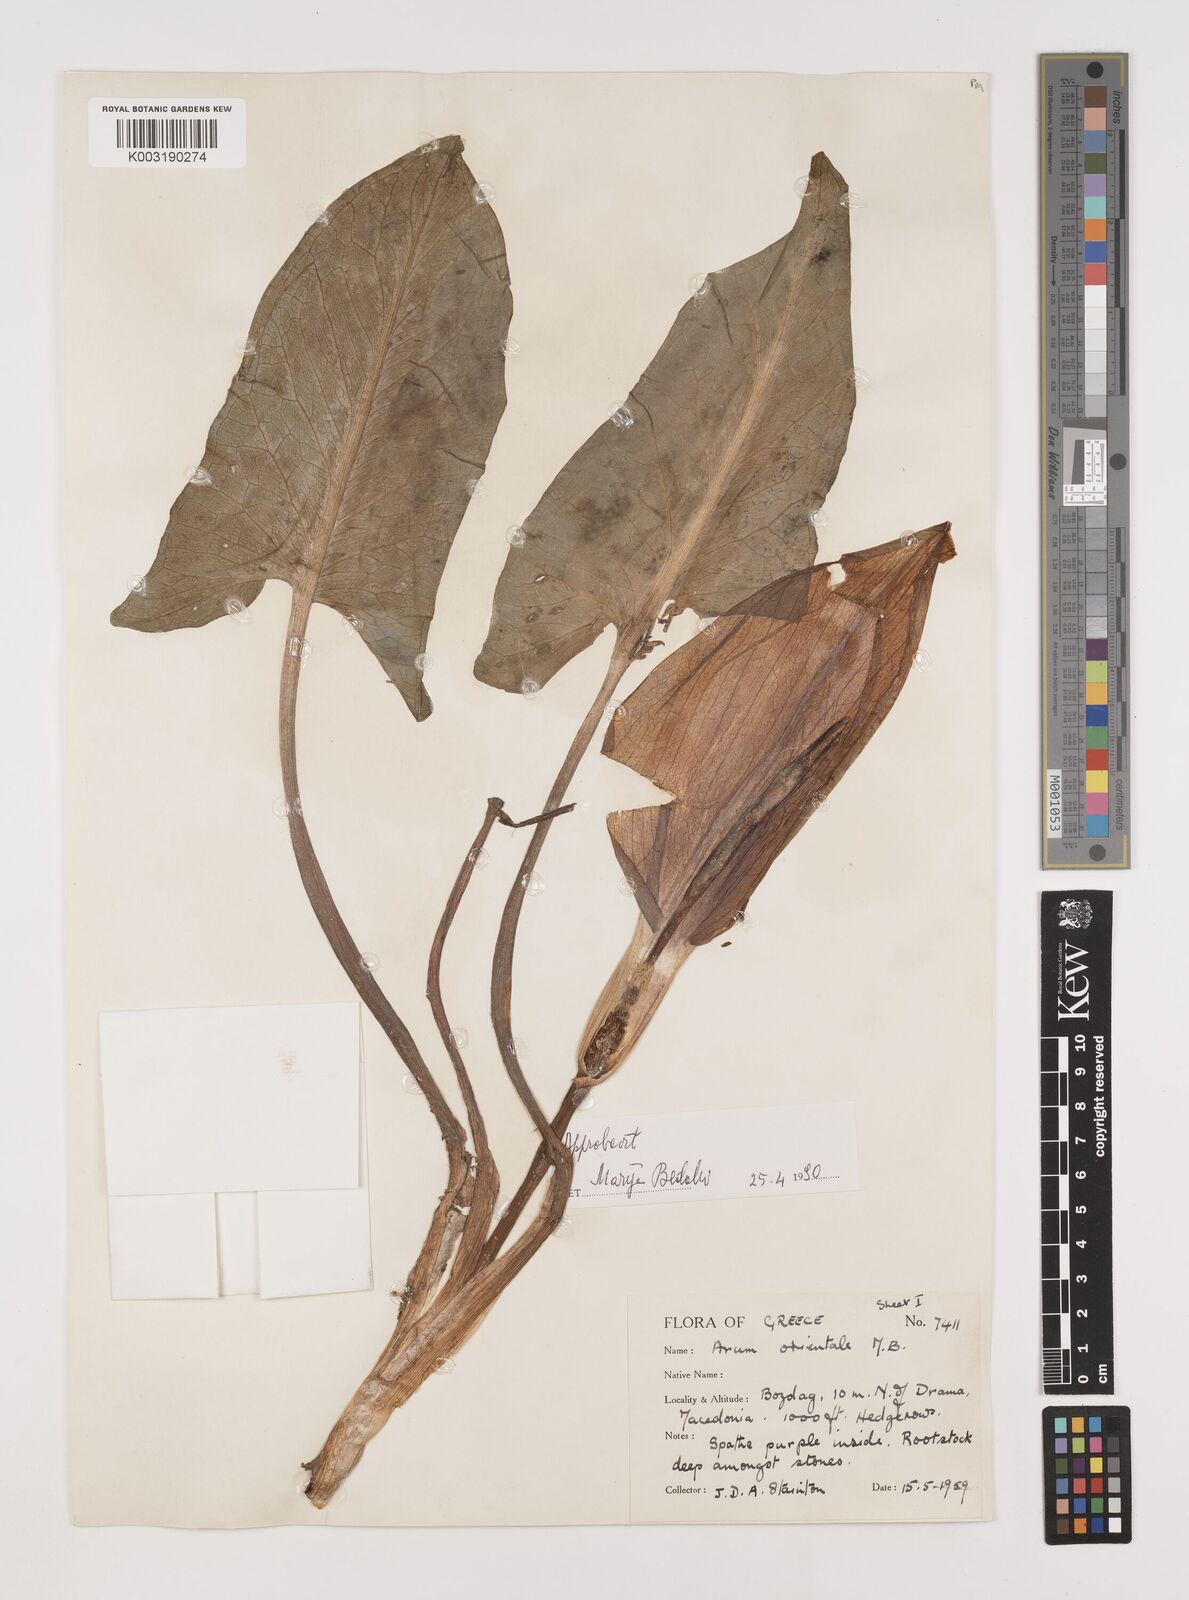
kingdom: Plantae
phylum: Tracheophyta
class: Liliopsida
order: Alismatales
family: Araceae
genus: Arum
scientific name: Arum orientale
